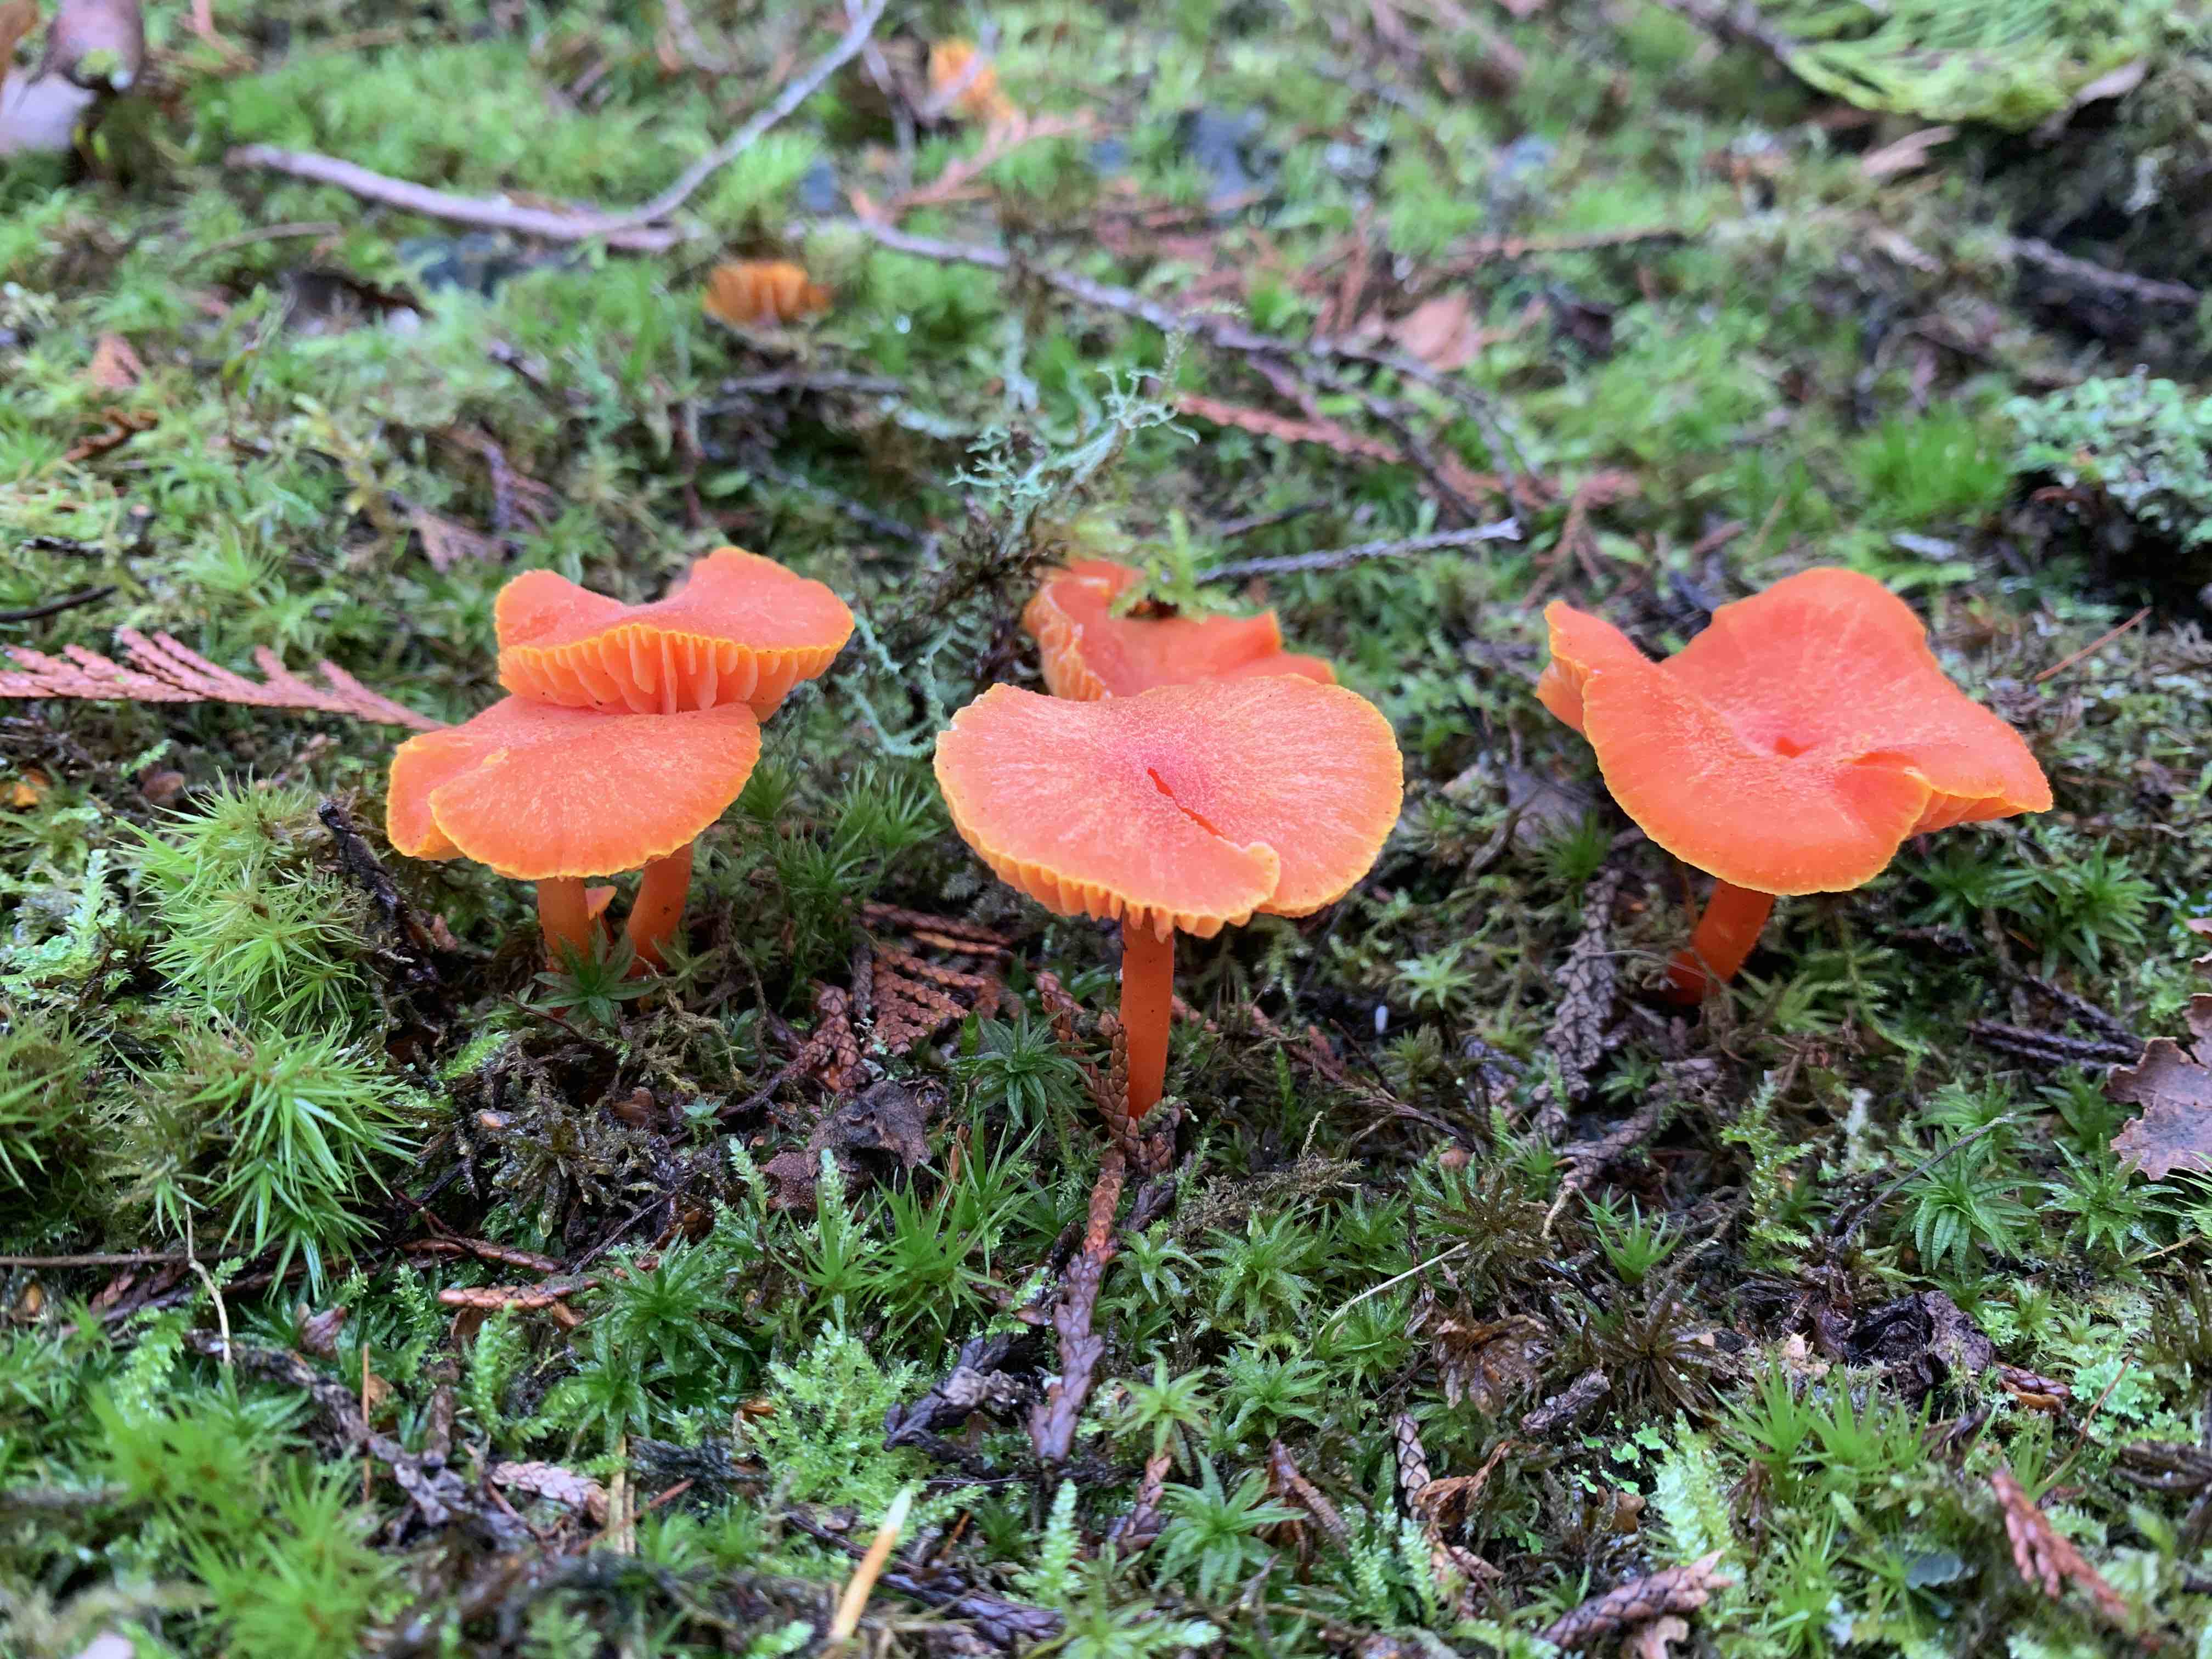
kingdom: Fungi
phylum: Basidiomycota
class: Agaricomycetes
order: Agaricales
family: Hygrophoraceae
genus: Hygrocybe
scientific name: Hygrocybe miniata
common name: mønje-vokshat
